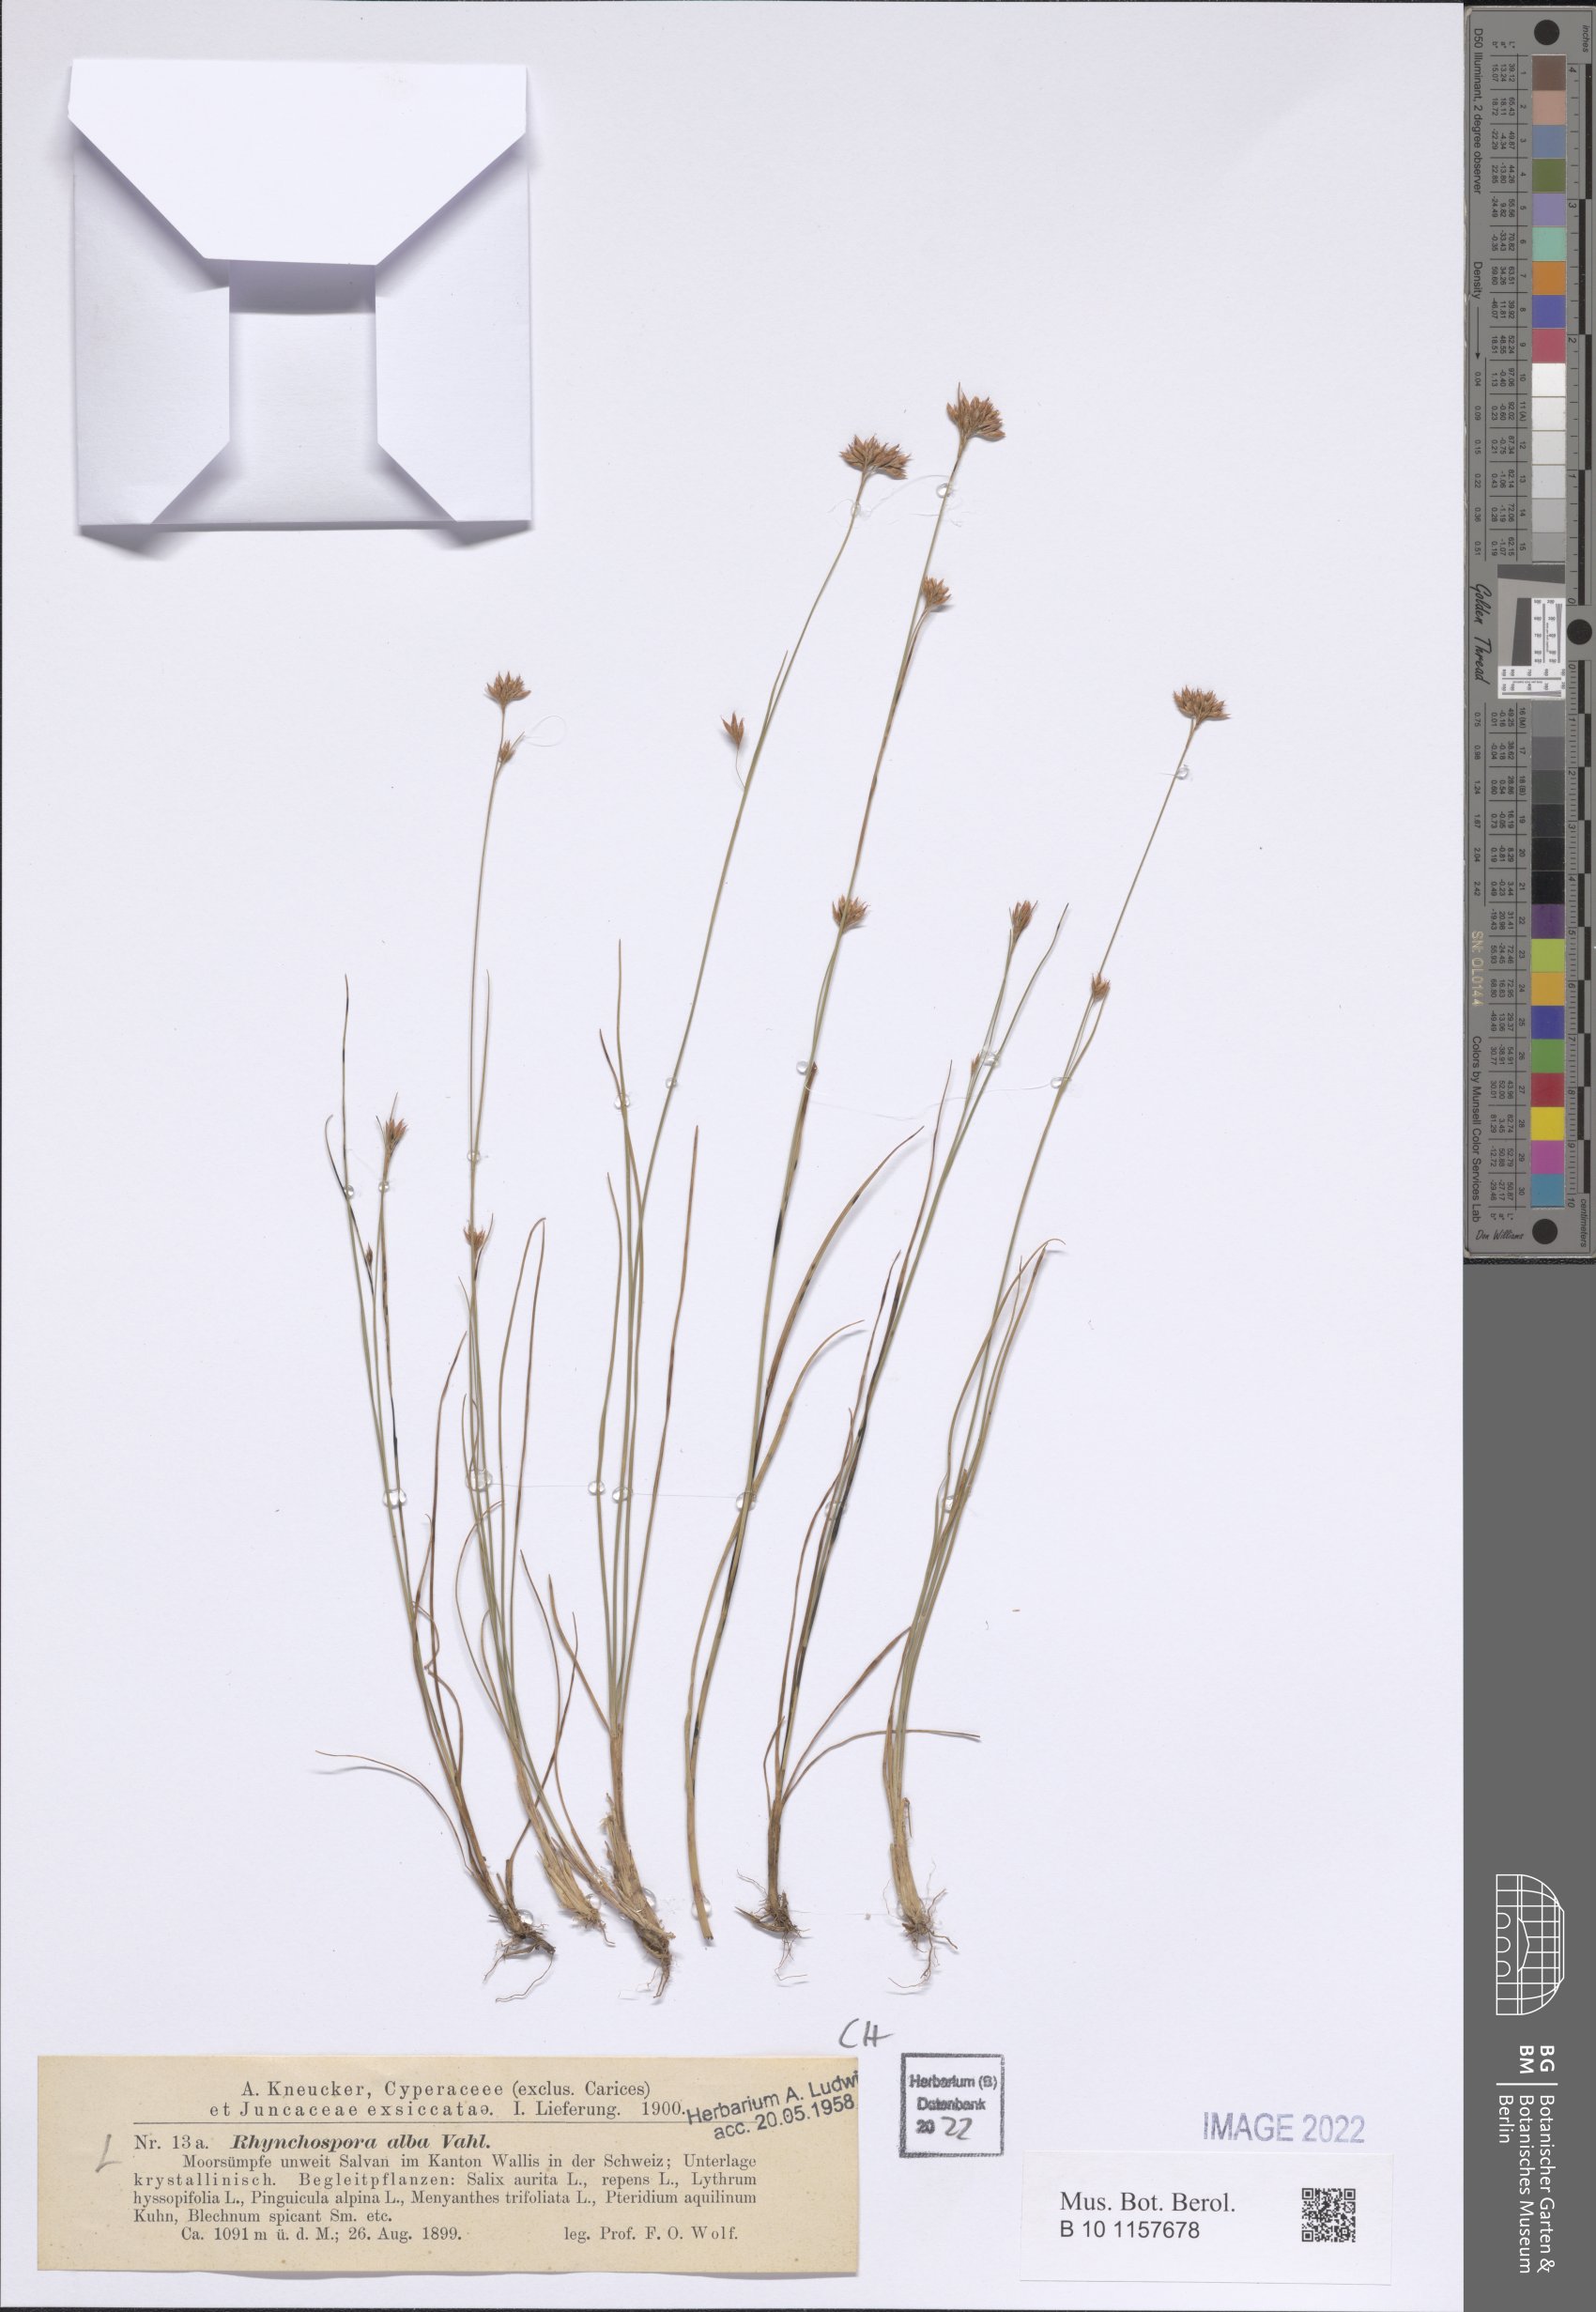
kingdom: Plantae
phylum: Tracheophyta
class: Liliopsida
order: Poales
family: Cyperaceae
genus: Rhynchospora
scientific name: Rhynchospora alba
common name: White beak-sedge
